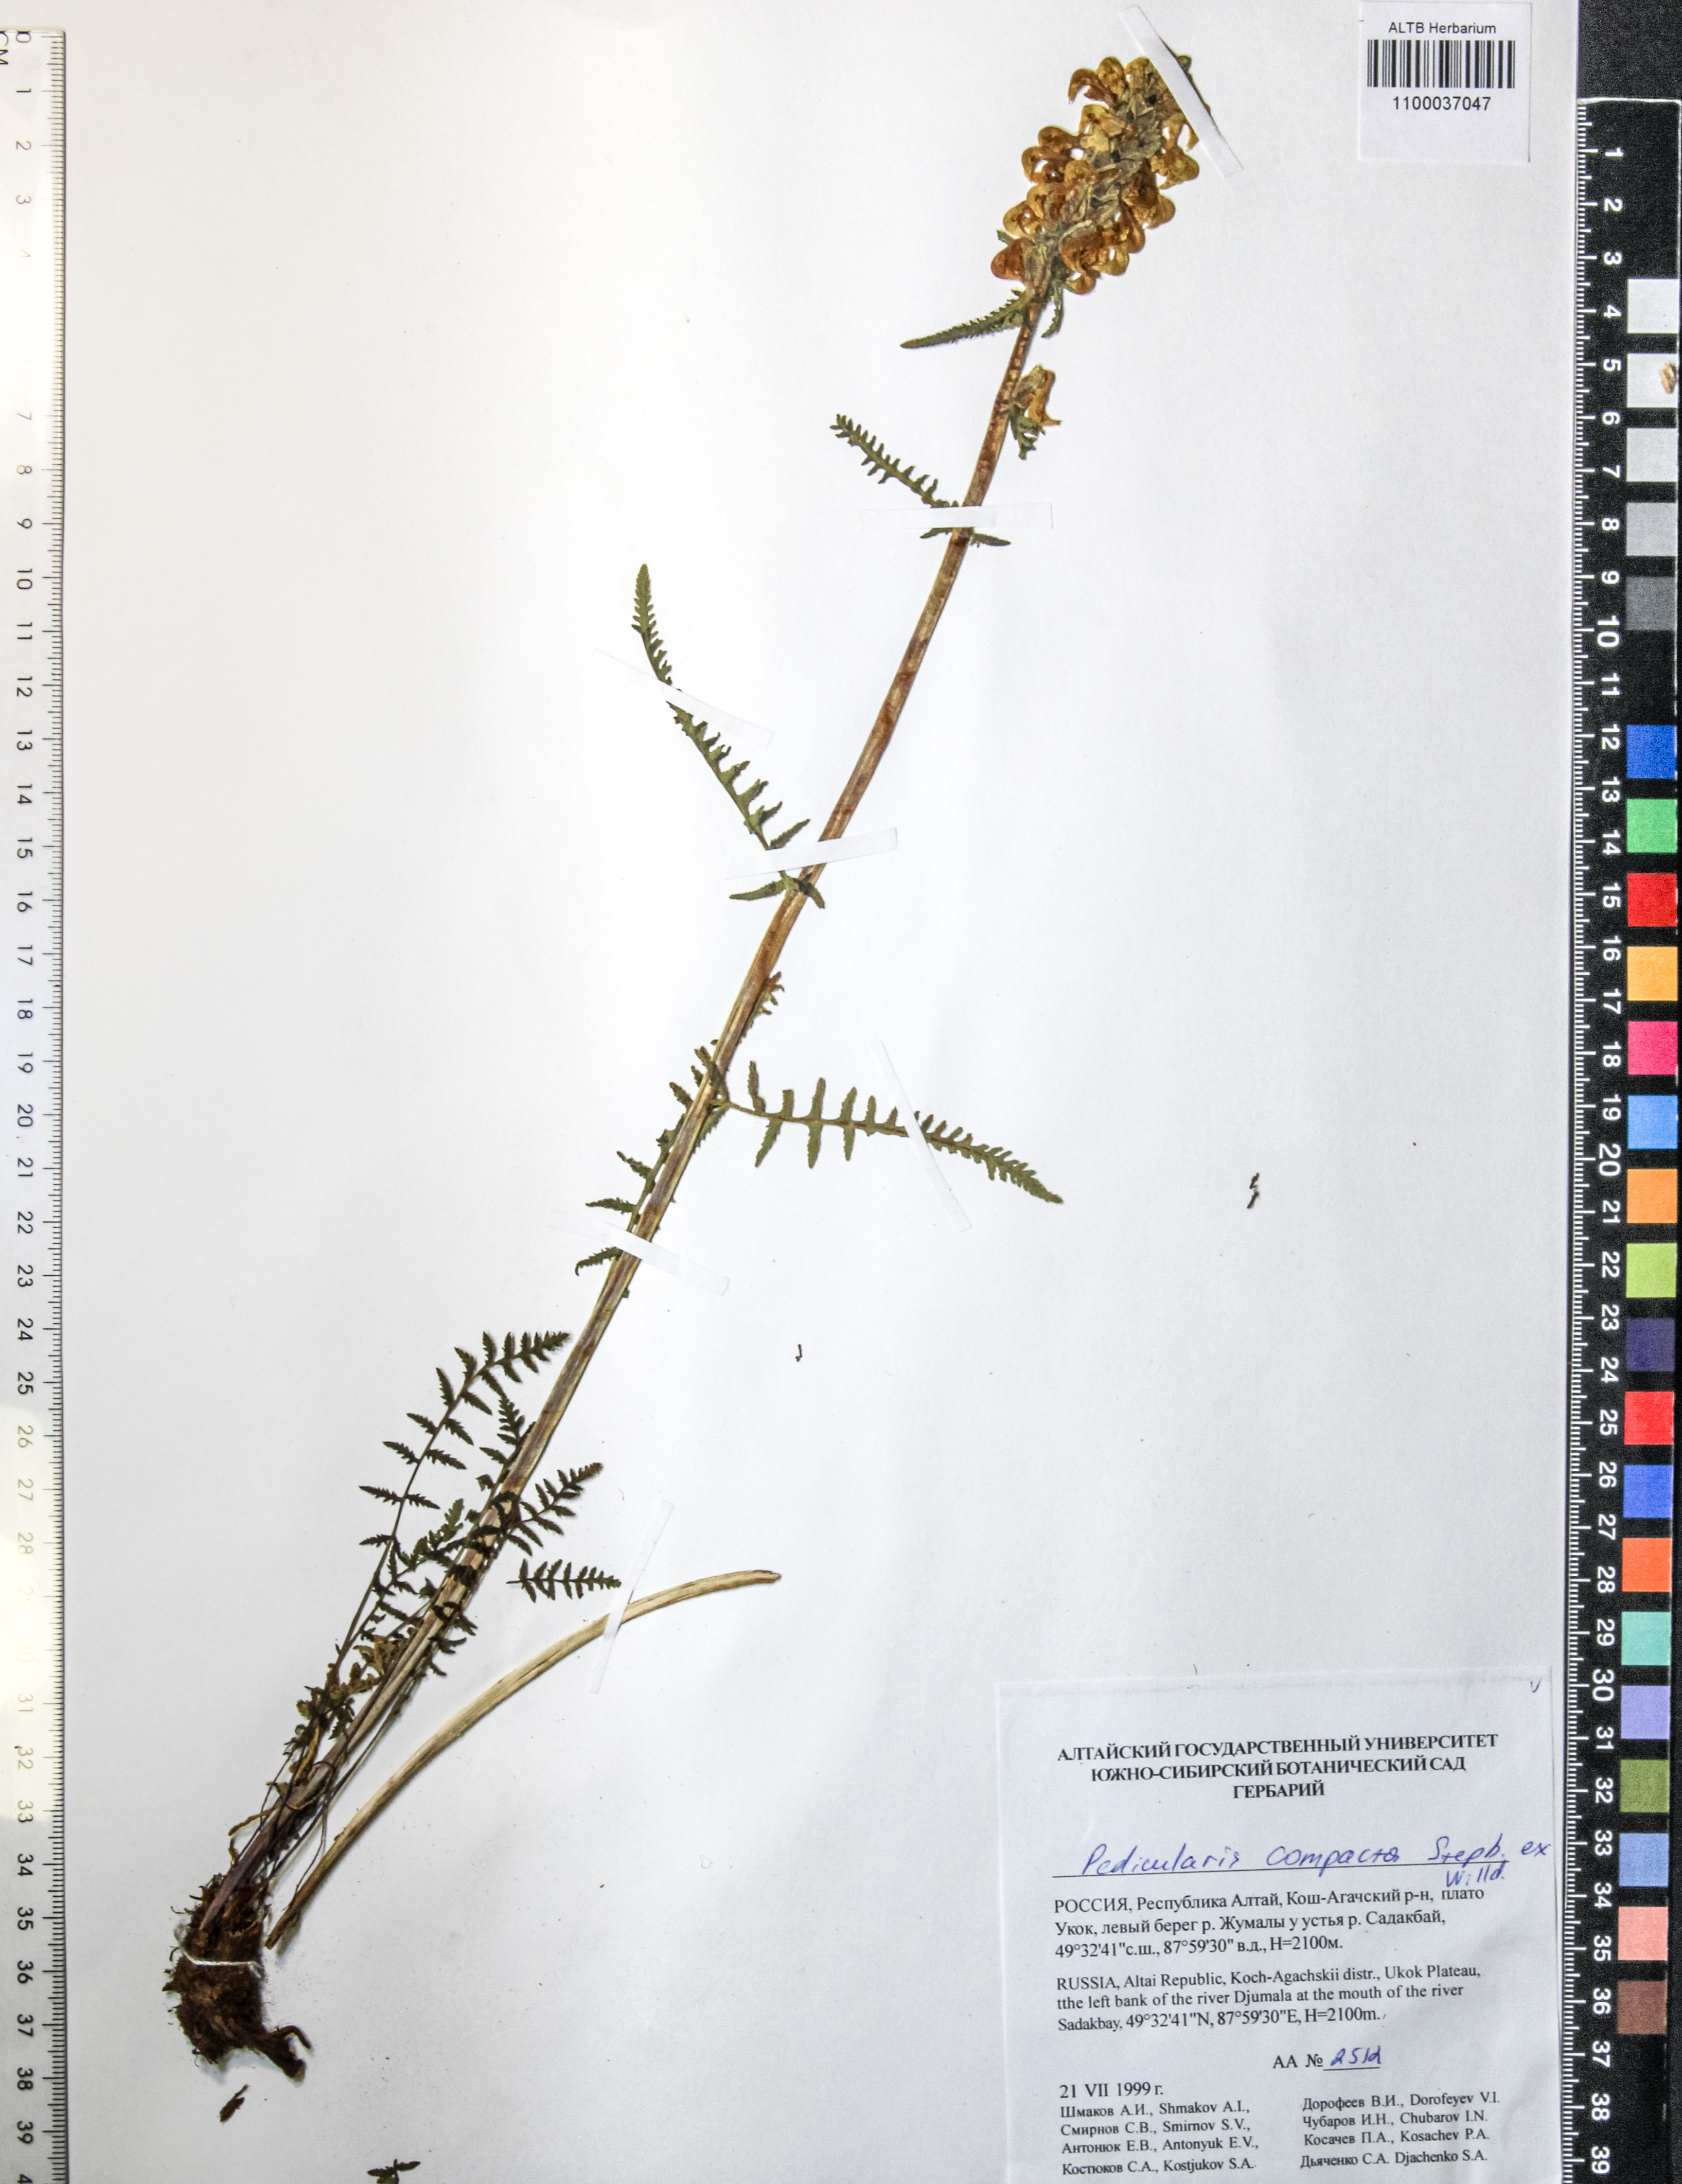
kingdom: Plantae
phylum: Tracheophyta
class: Magnoliopsida
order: Lamiales
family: Orobanchaceae
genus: Pedicularis
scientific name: Pedicularis compacta
